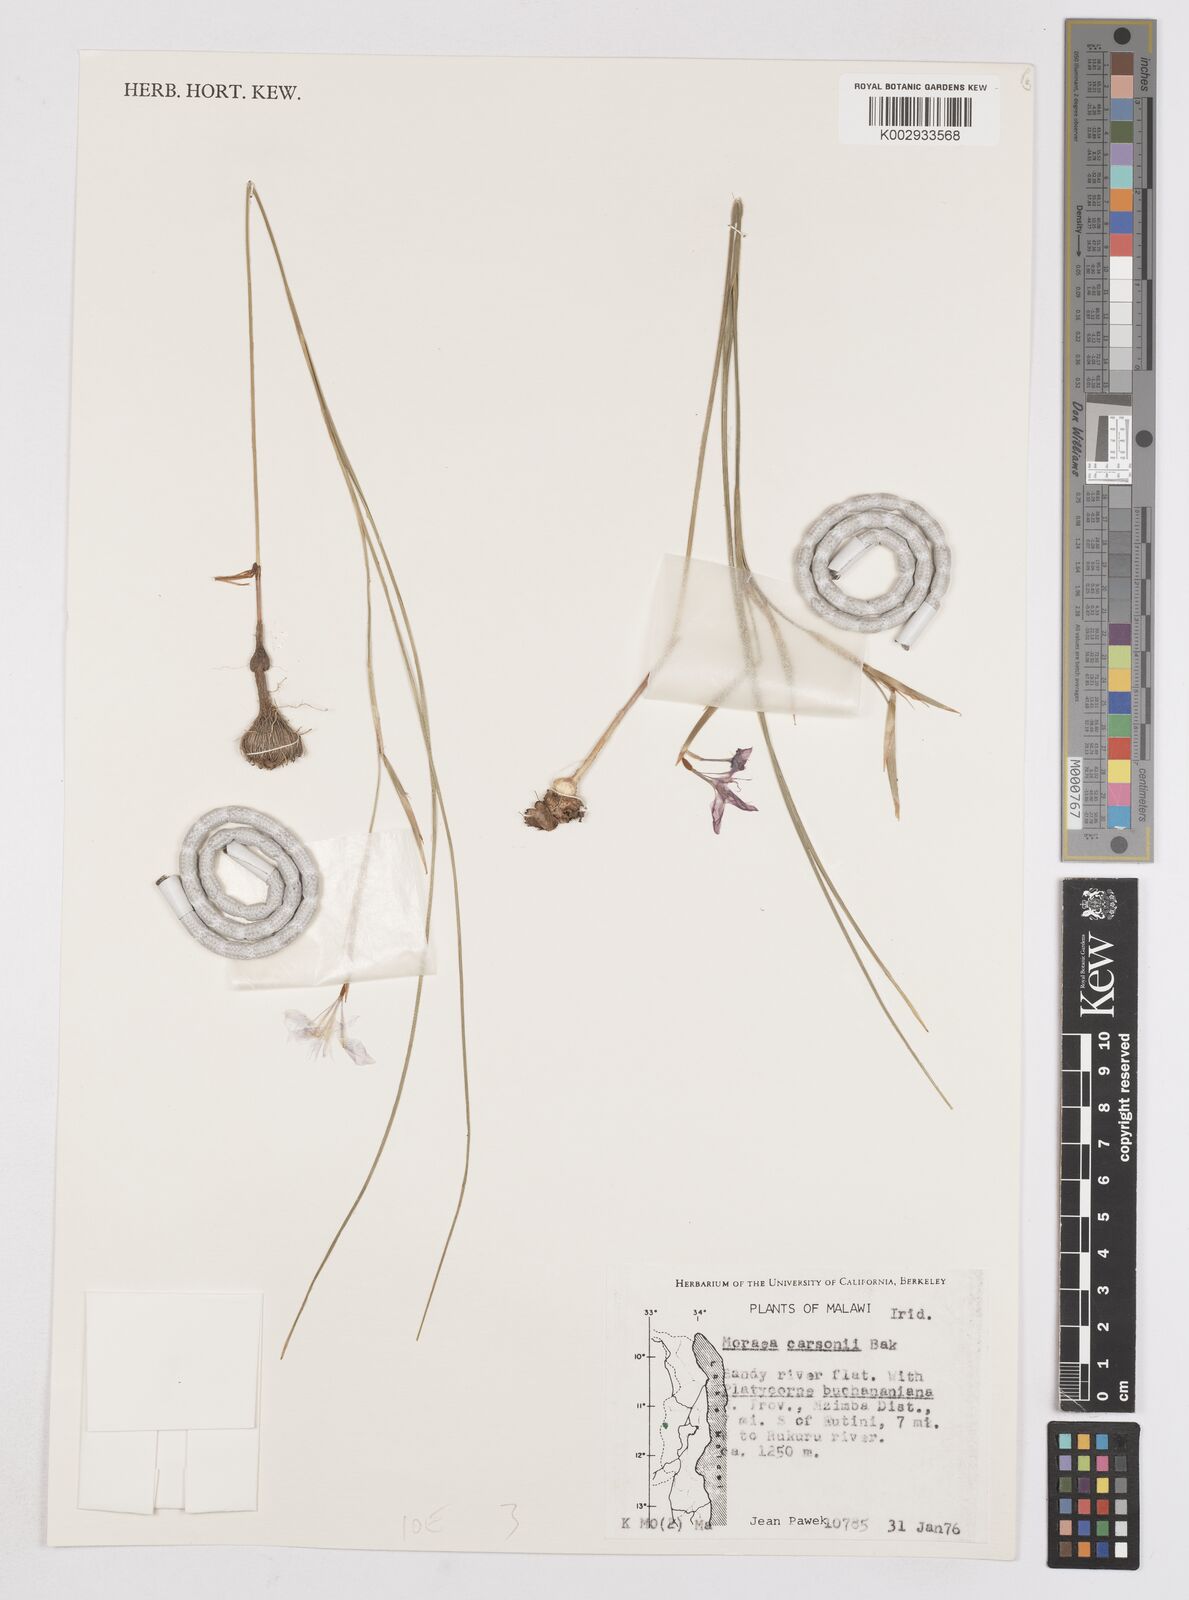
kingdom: Plantae
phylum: Tracheophyta
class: Liliopsida
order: Asparagales
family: Iridaceae
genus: Moraea
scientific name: Moraea carsonii
